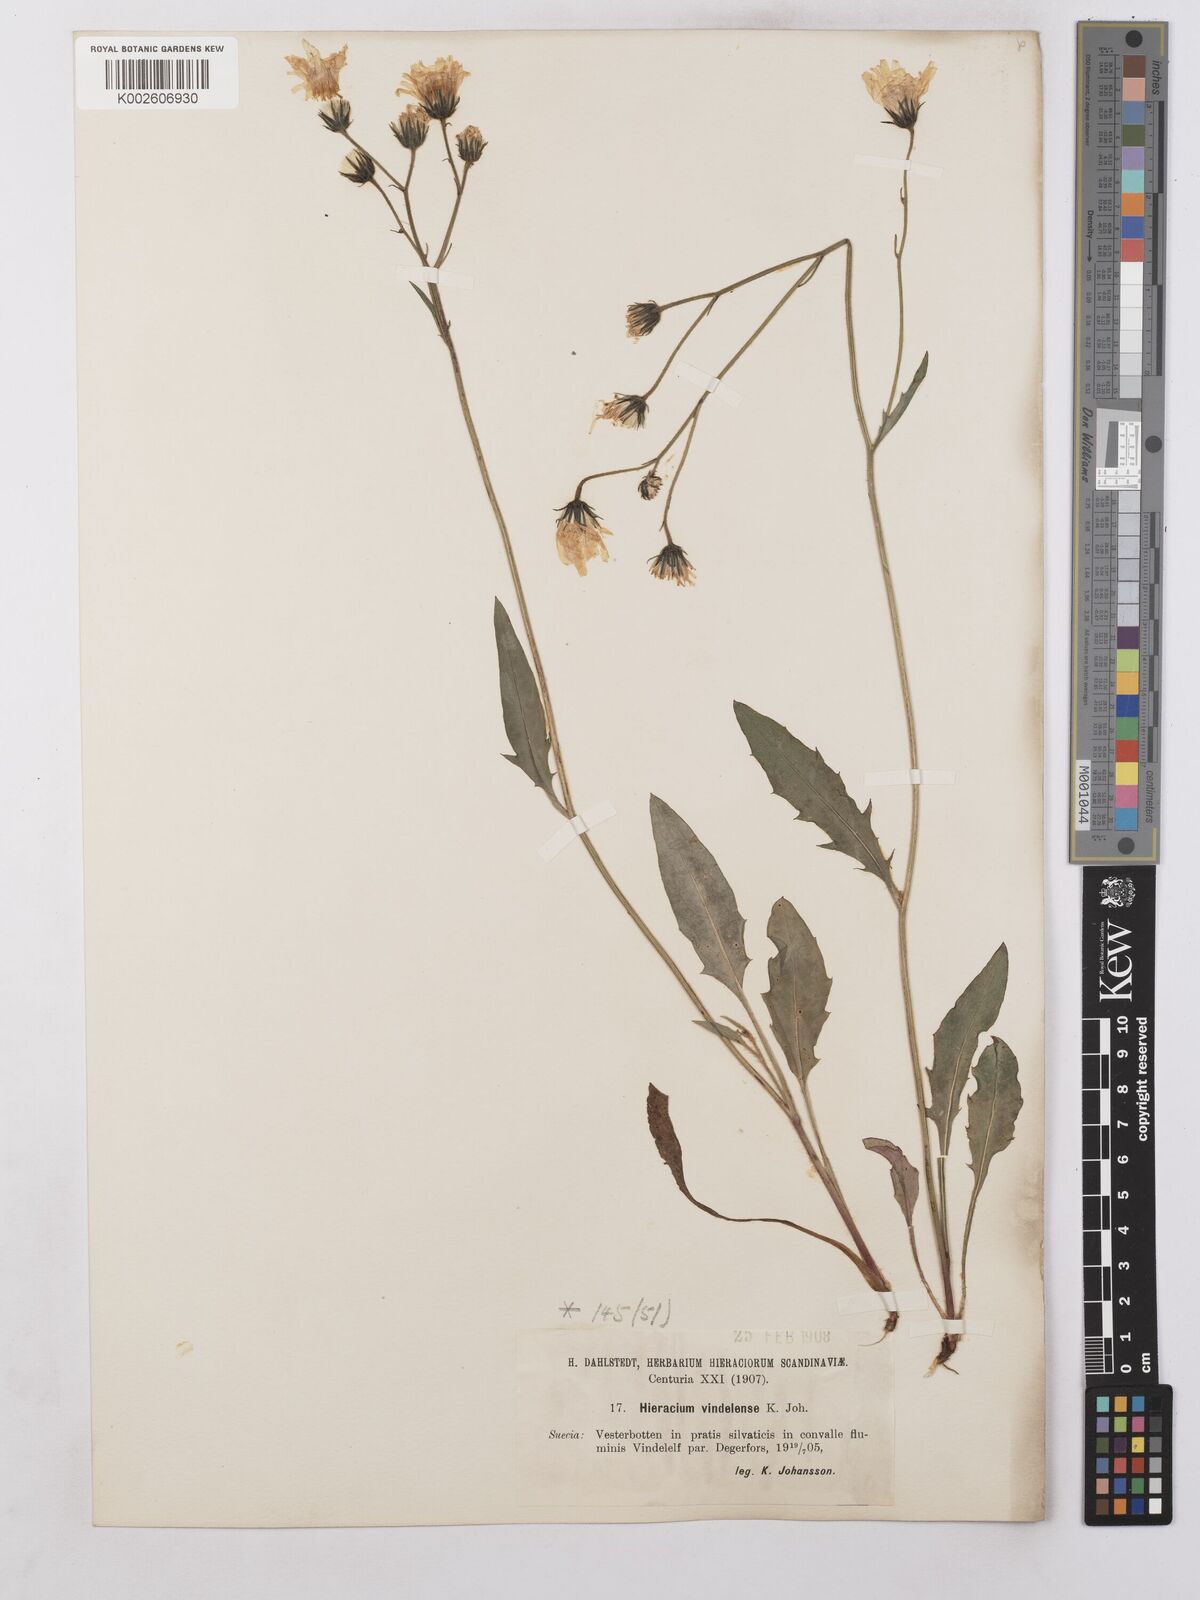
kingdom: Plantae
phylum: Tracheophyta
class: Magnoliopsida
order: Asterales
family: Asteraceae
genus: Hieracium
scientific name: Hieracium levicaule
